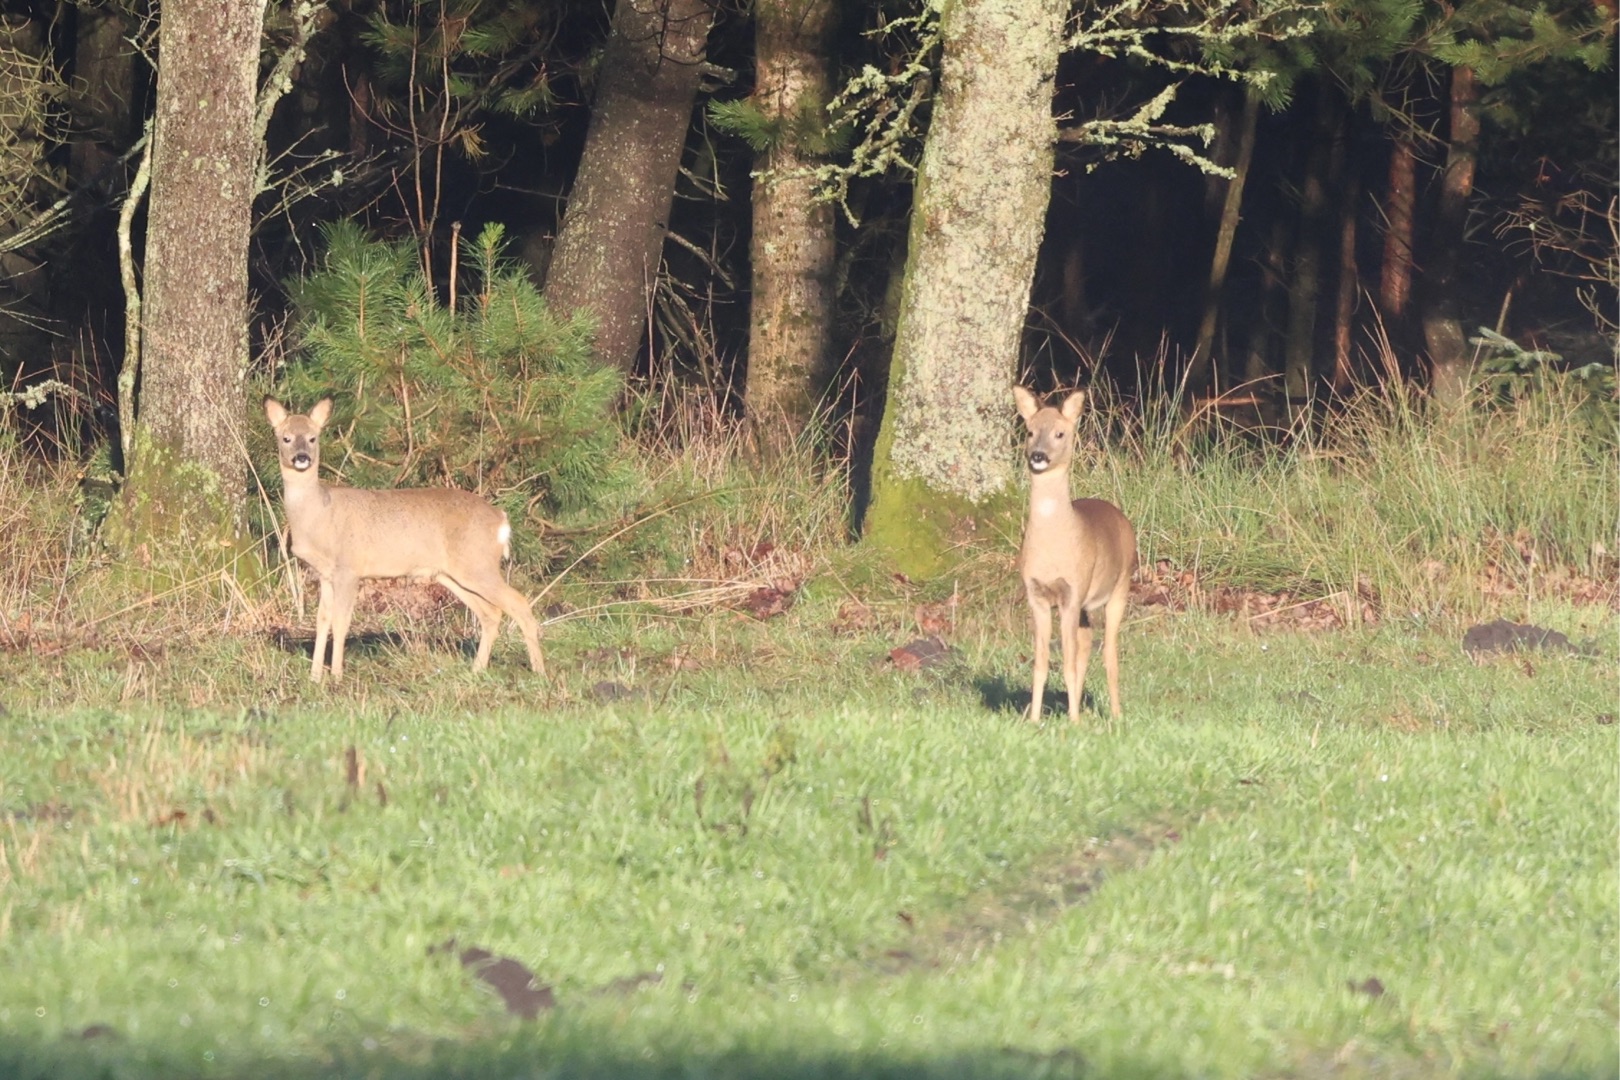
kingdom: Animalia
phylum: Chordata
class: Mammalia
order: Artiodactyla
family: Cervidae
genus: Capreolus
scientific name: Capreolus capreolus
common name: Rådyr
